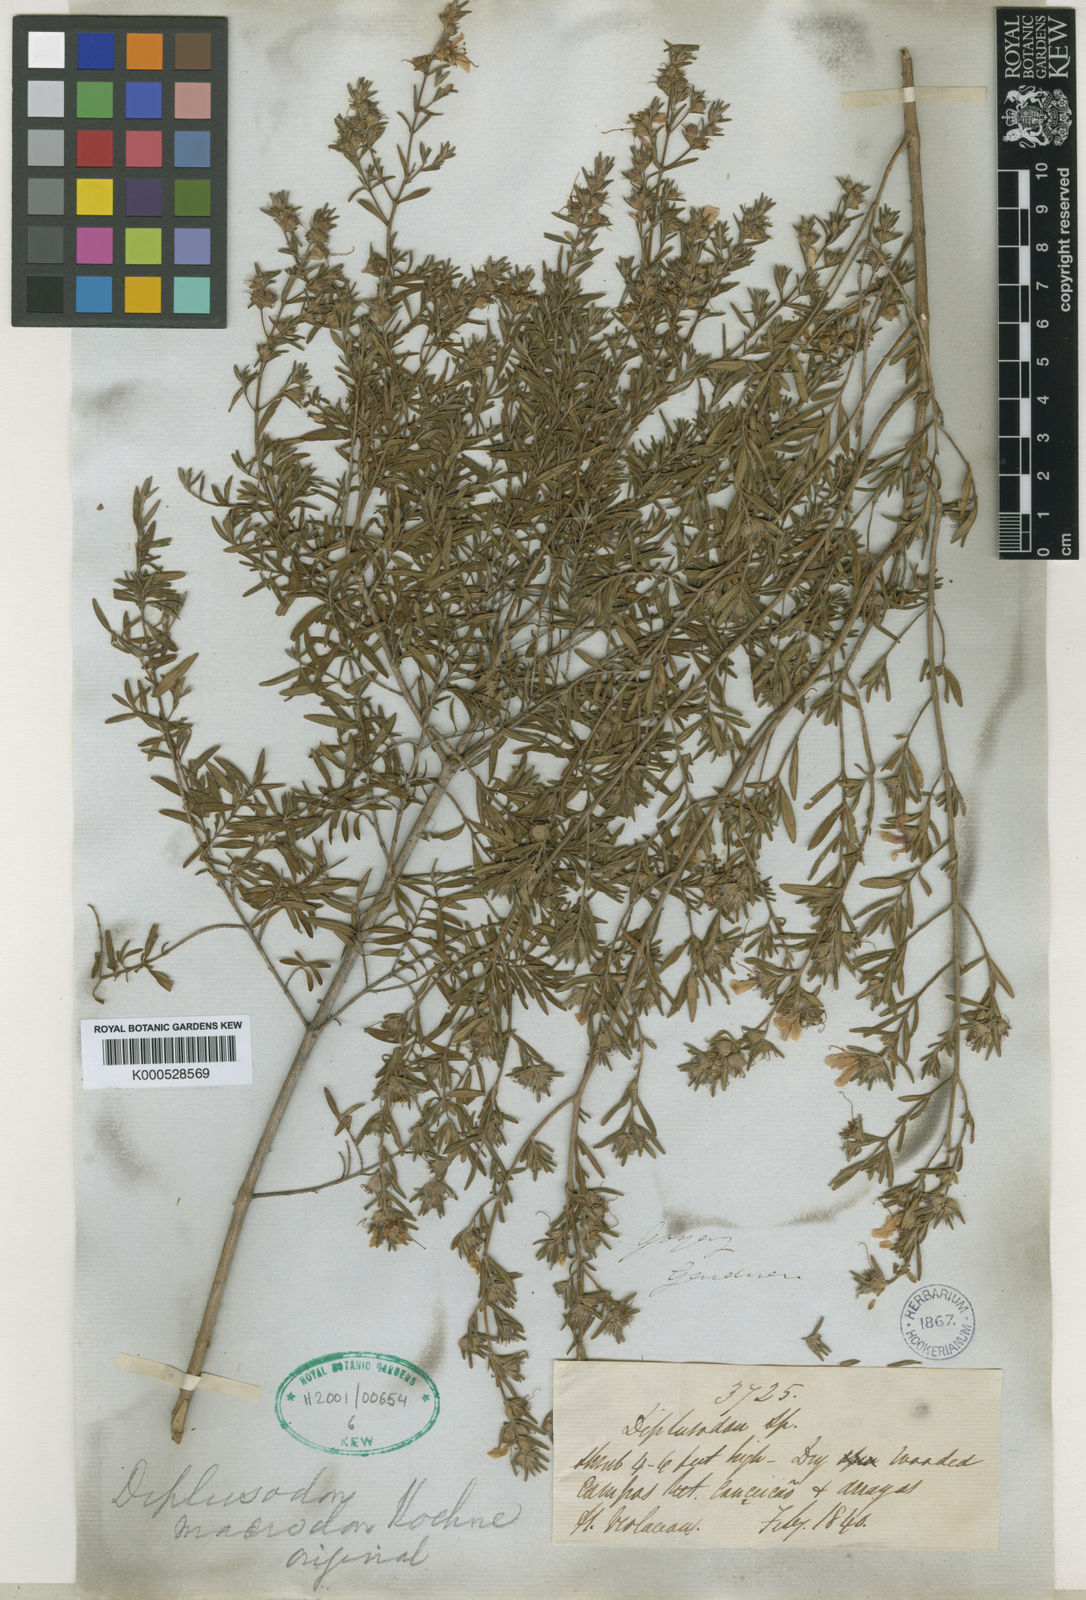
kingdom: Plantae
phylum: Tracheophyta
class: Magnoliopsida
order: Myrtales
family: Lythraceae
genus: Diplusodon
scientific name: Diplusodon macrodon
